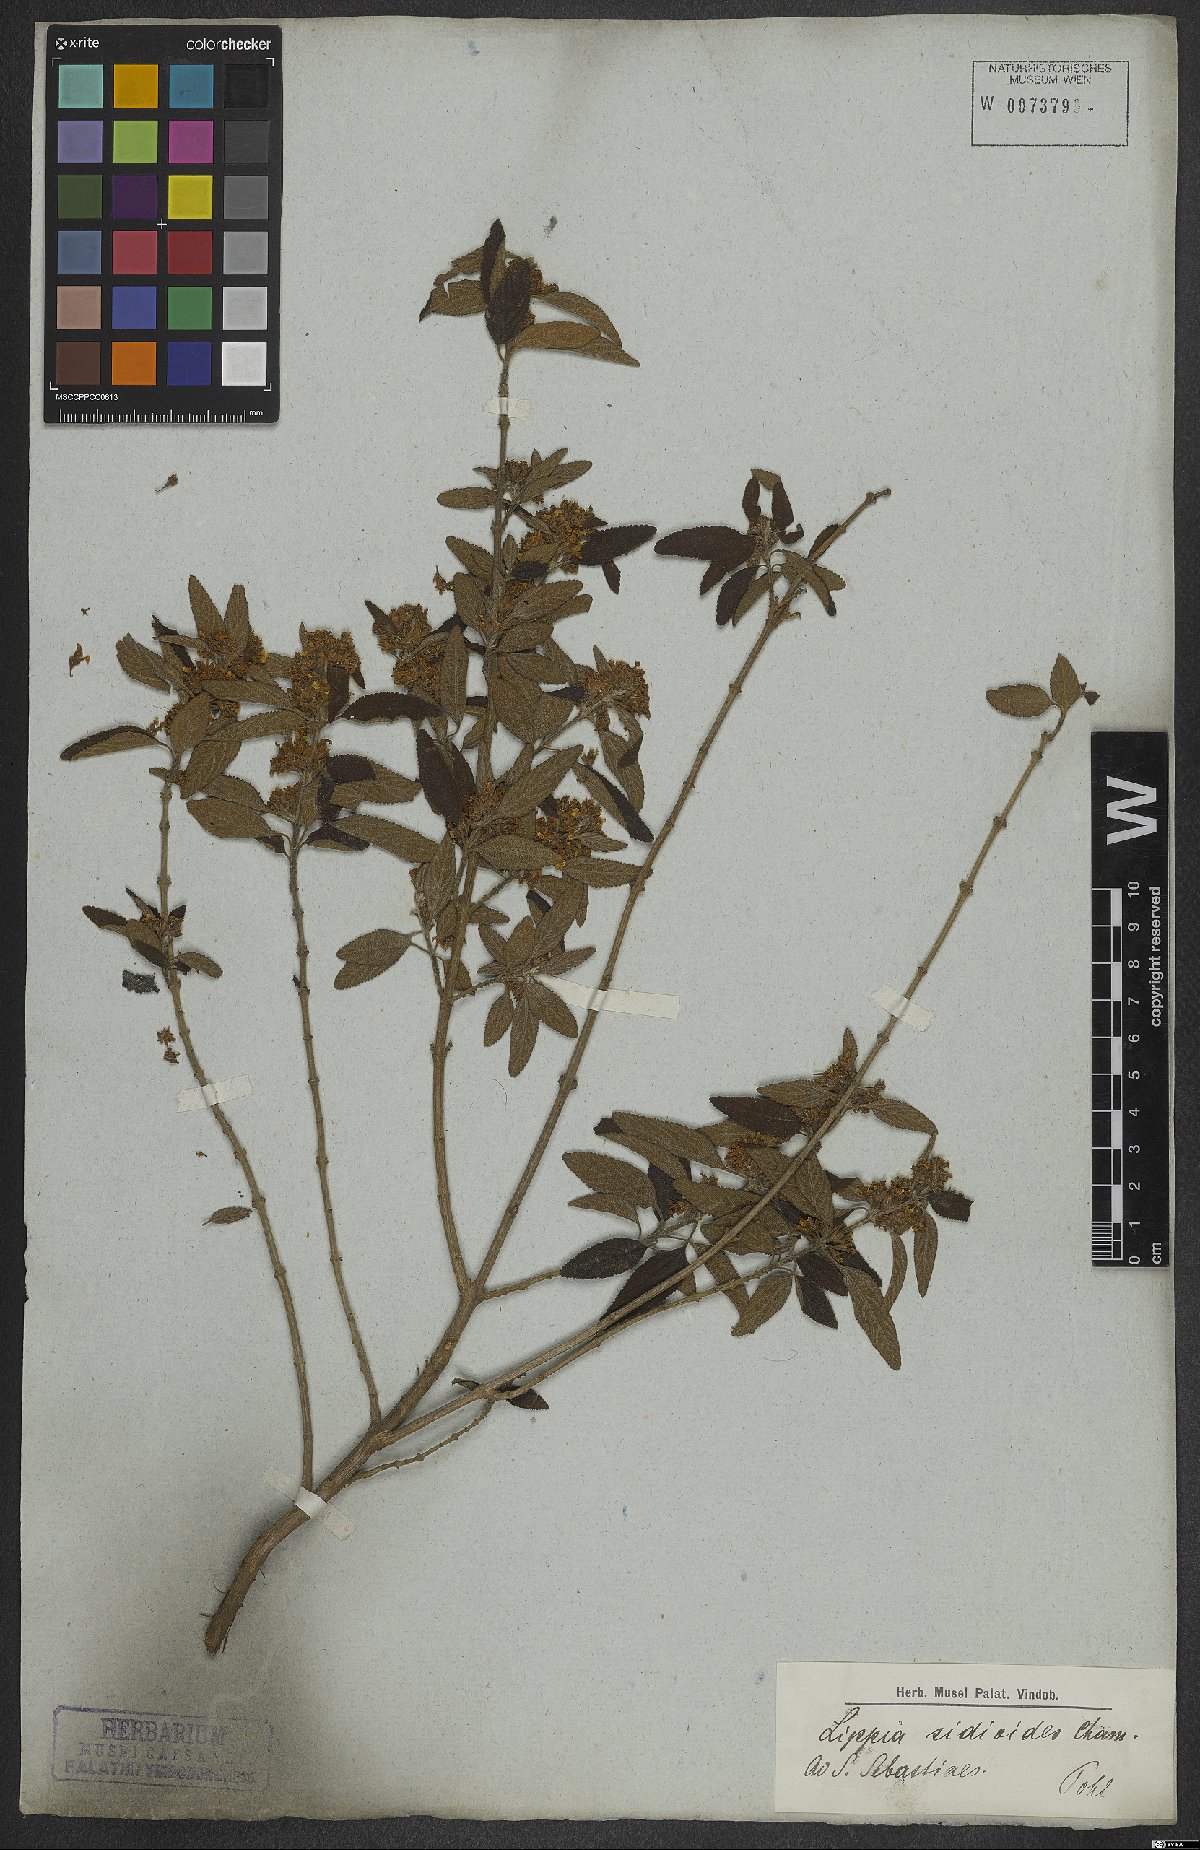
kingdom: Plantae
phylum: Tracheophyta
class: Magnoliopsida
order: Lamiales
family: Verbenaceae
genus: Lippia
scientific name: Lippia origanoides
